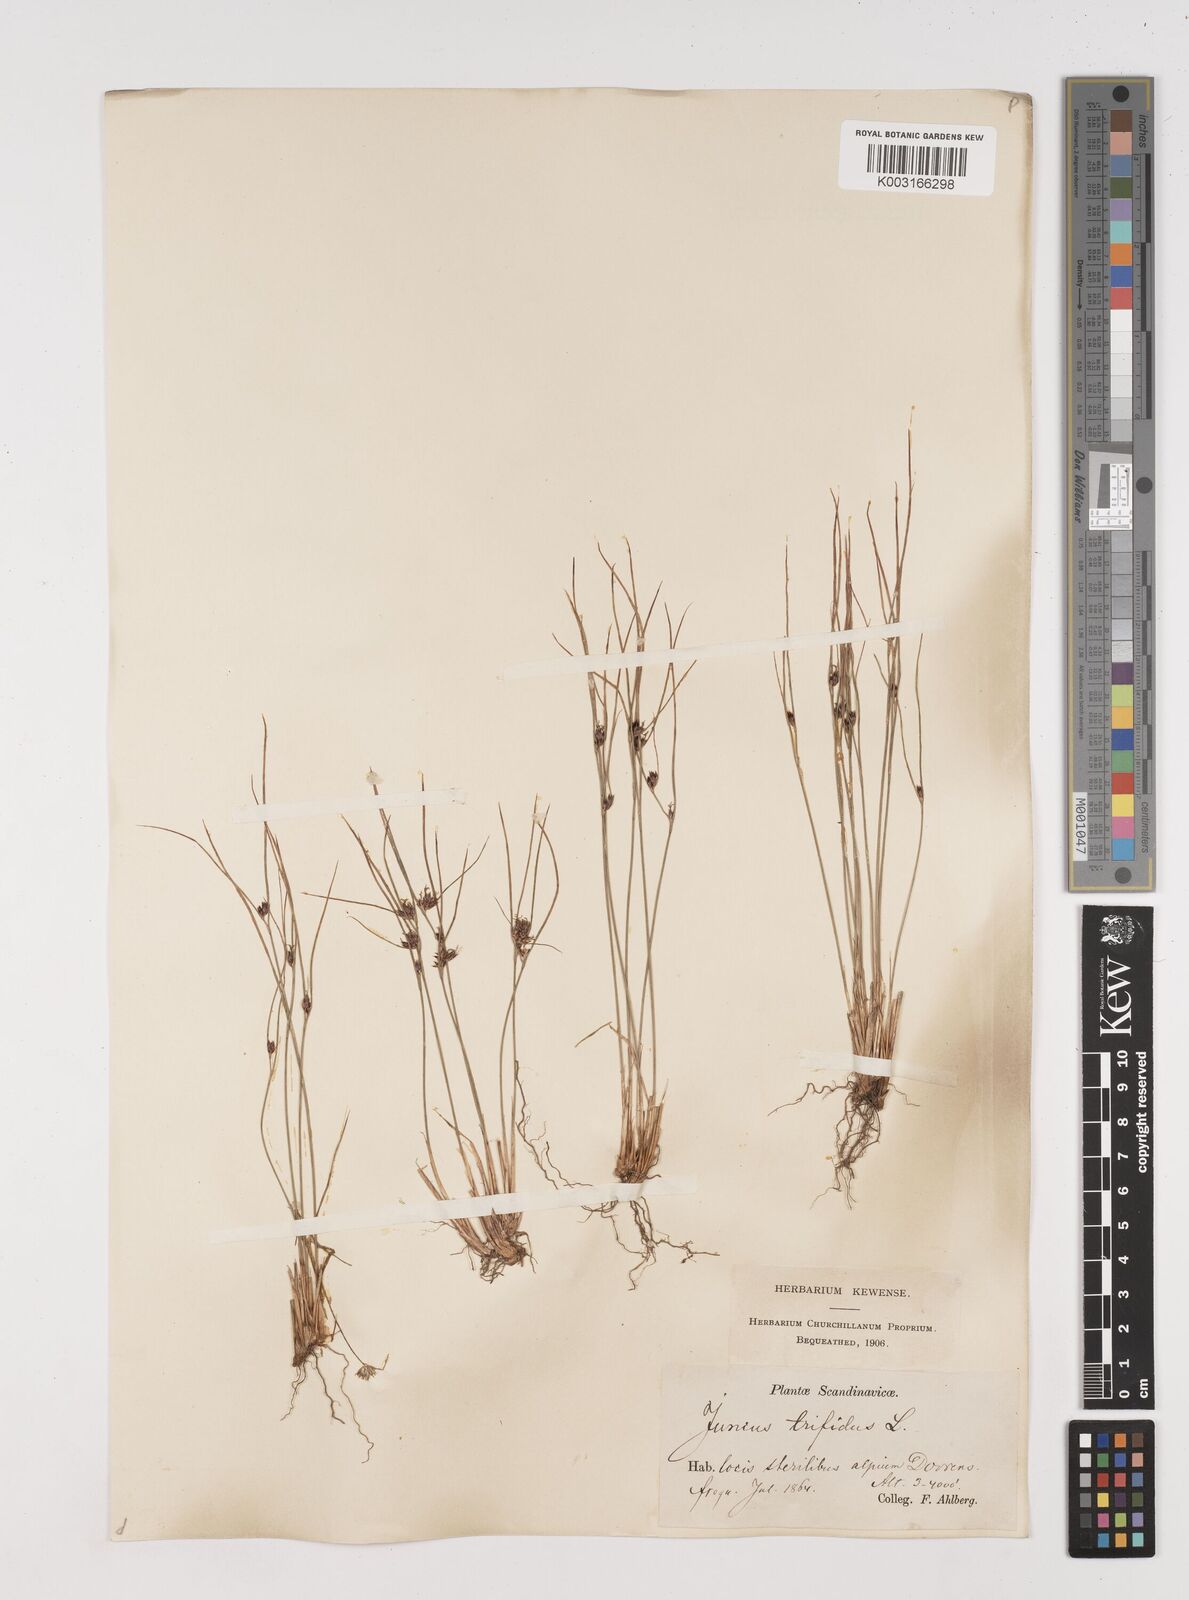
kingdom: Plantae
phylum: Tracheophyta
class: Liliopsida
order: Poales
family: Juncaceae
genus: Oreojuncus
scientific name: Oreojuncus trifidus
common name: Highland rush
